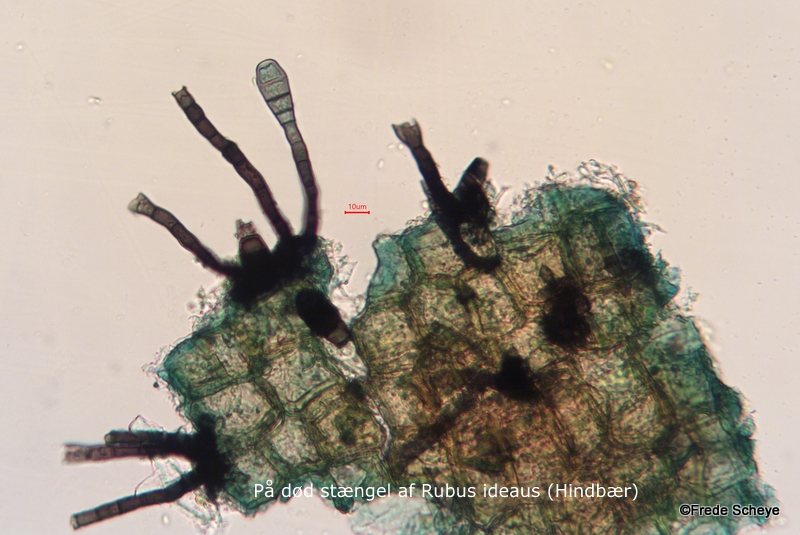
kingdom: Fungi
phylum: Ascomycota
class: Sordariomycetes
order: Sordariales
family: Helminthosphaeriaceae
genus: Endophragmiella
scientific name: Endophragmiella boothii
